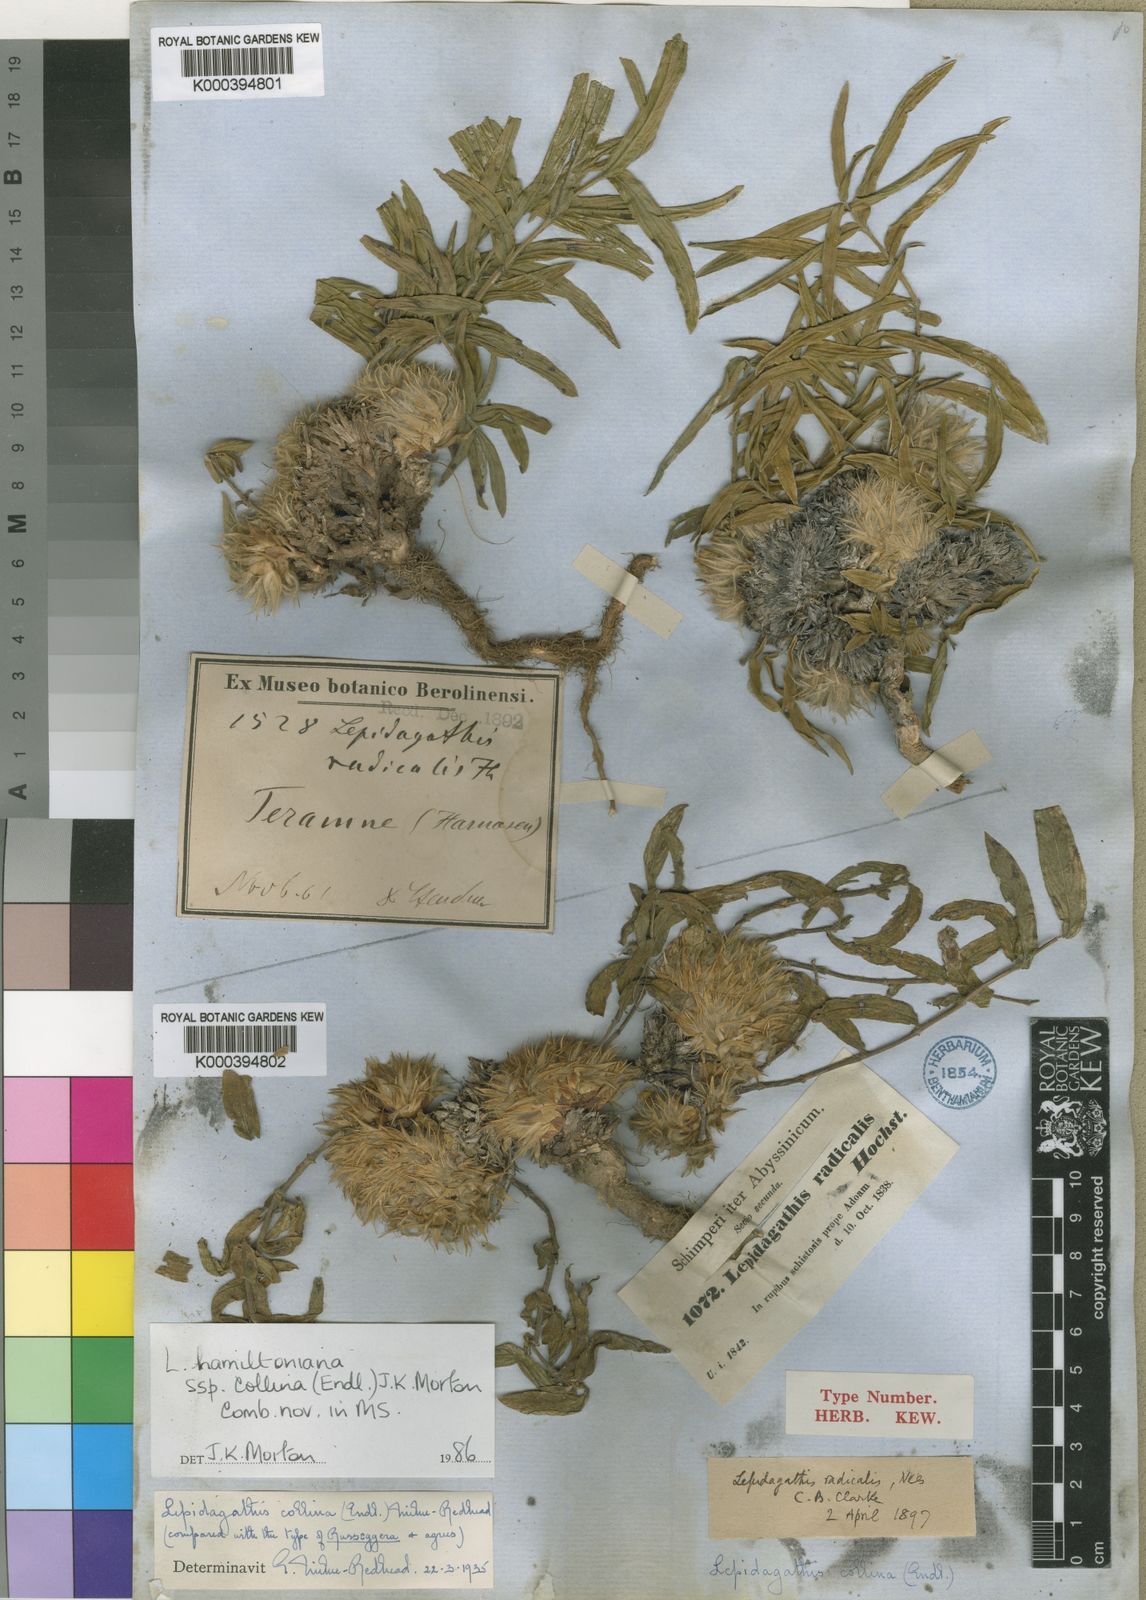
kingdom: Plantae
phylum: Tracheophyta
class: Magnoliopsida
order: Lamiales
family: Acanthaceae
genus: Lepidagathis
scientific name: Lepidagathis collina
